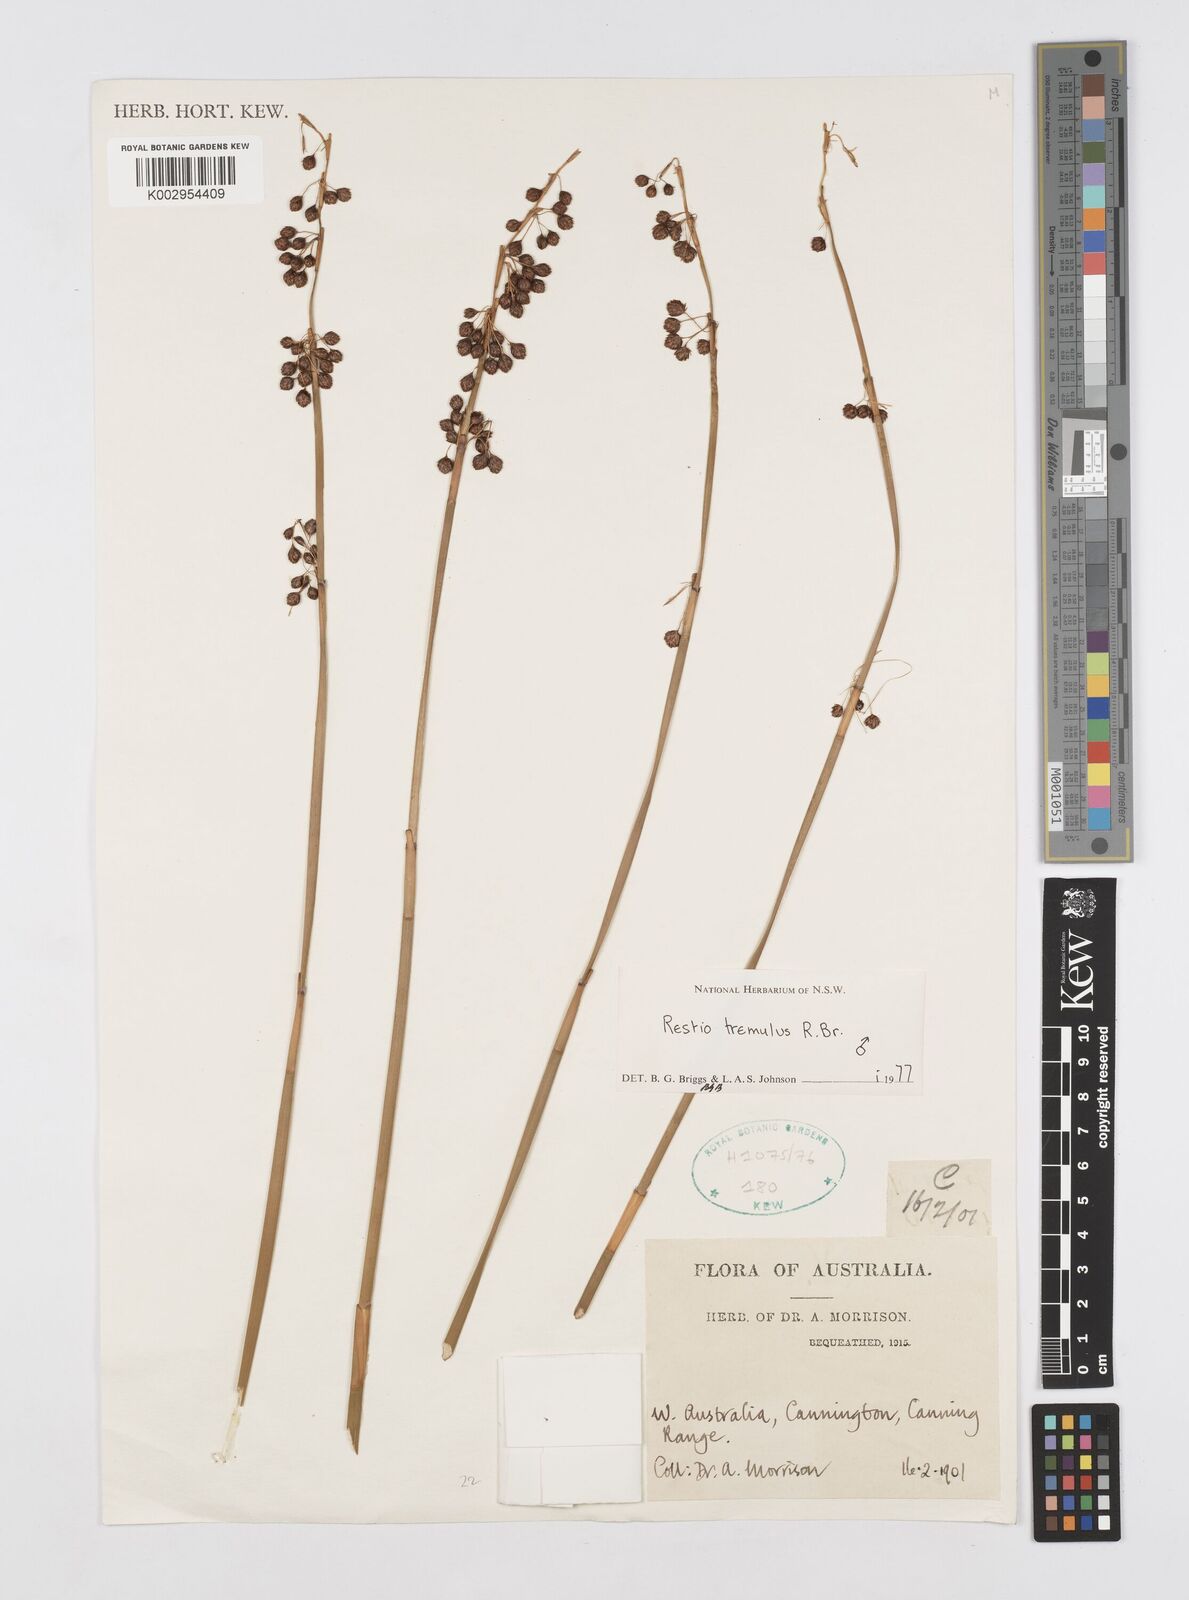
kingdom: Plantae
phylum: Tracheophyta
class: Liliopsida
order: Poales
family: Restionaceae
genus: Tremulina
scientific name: Tremulina tremula
